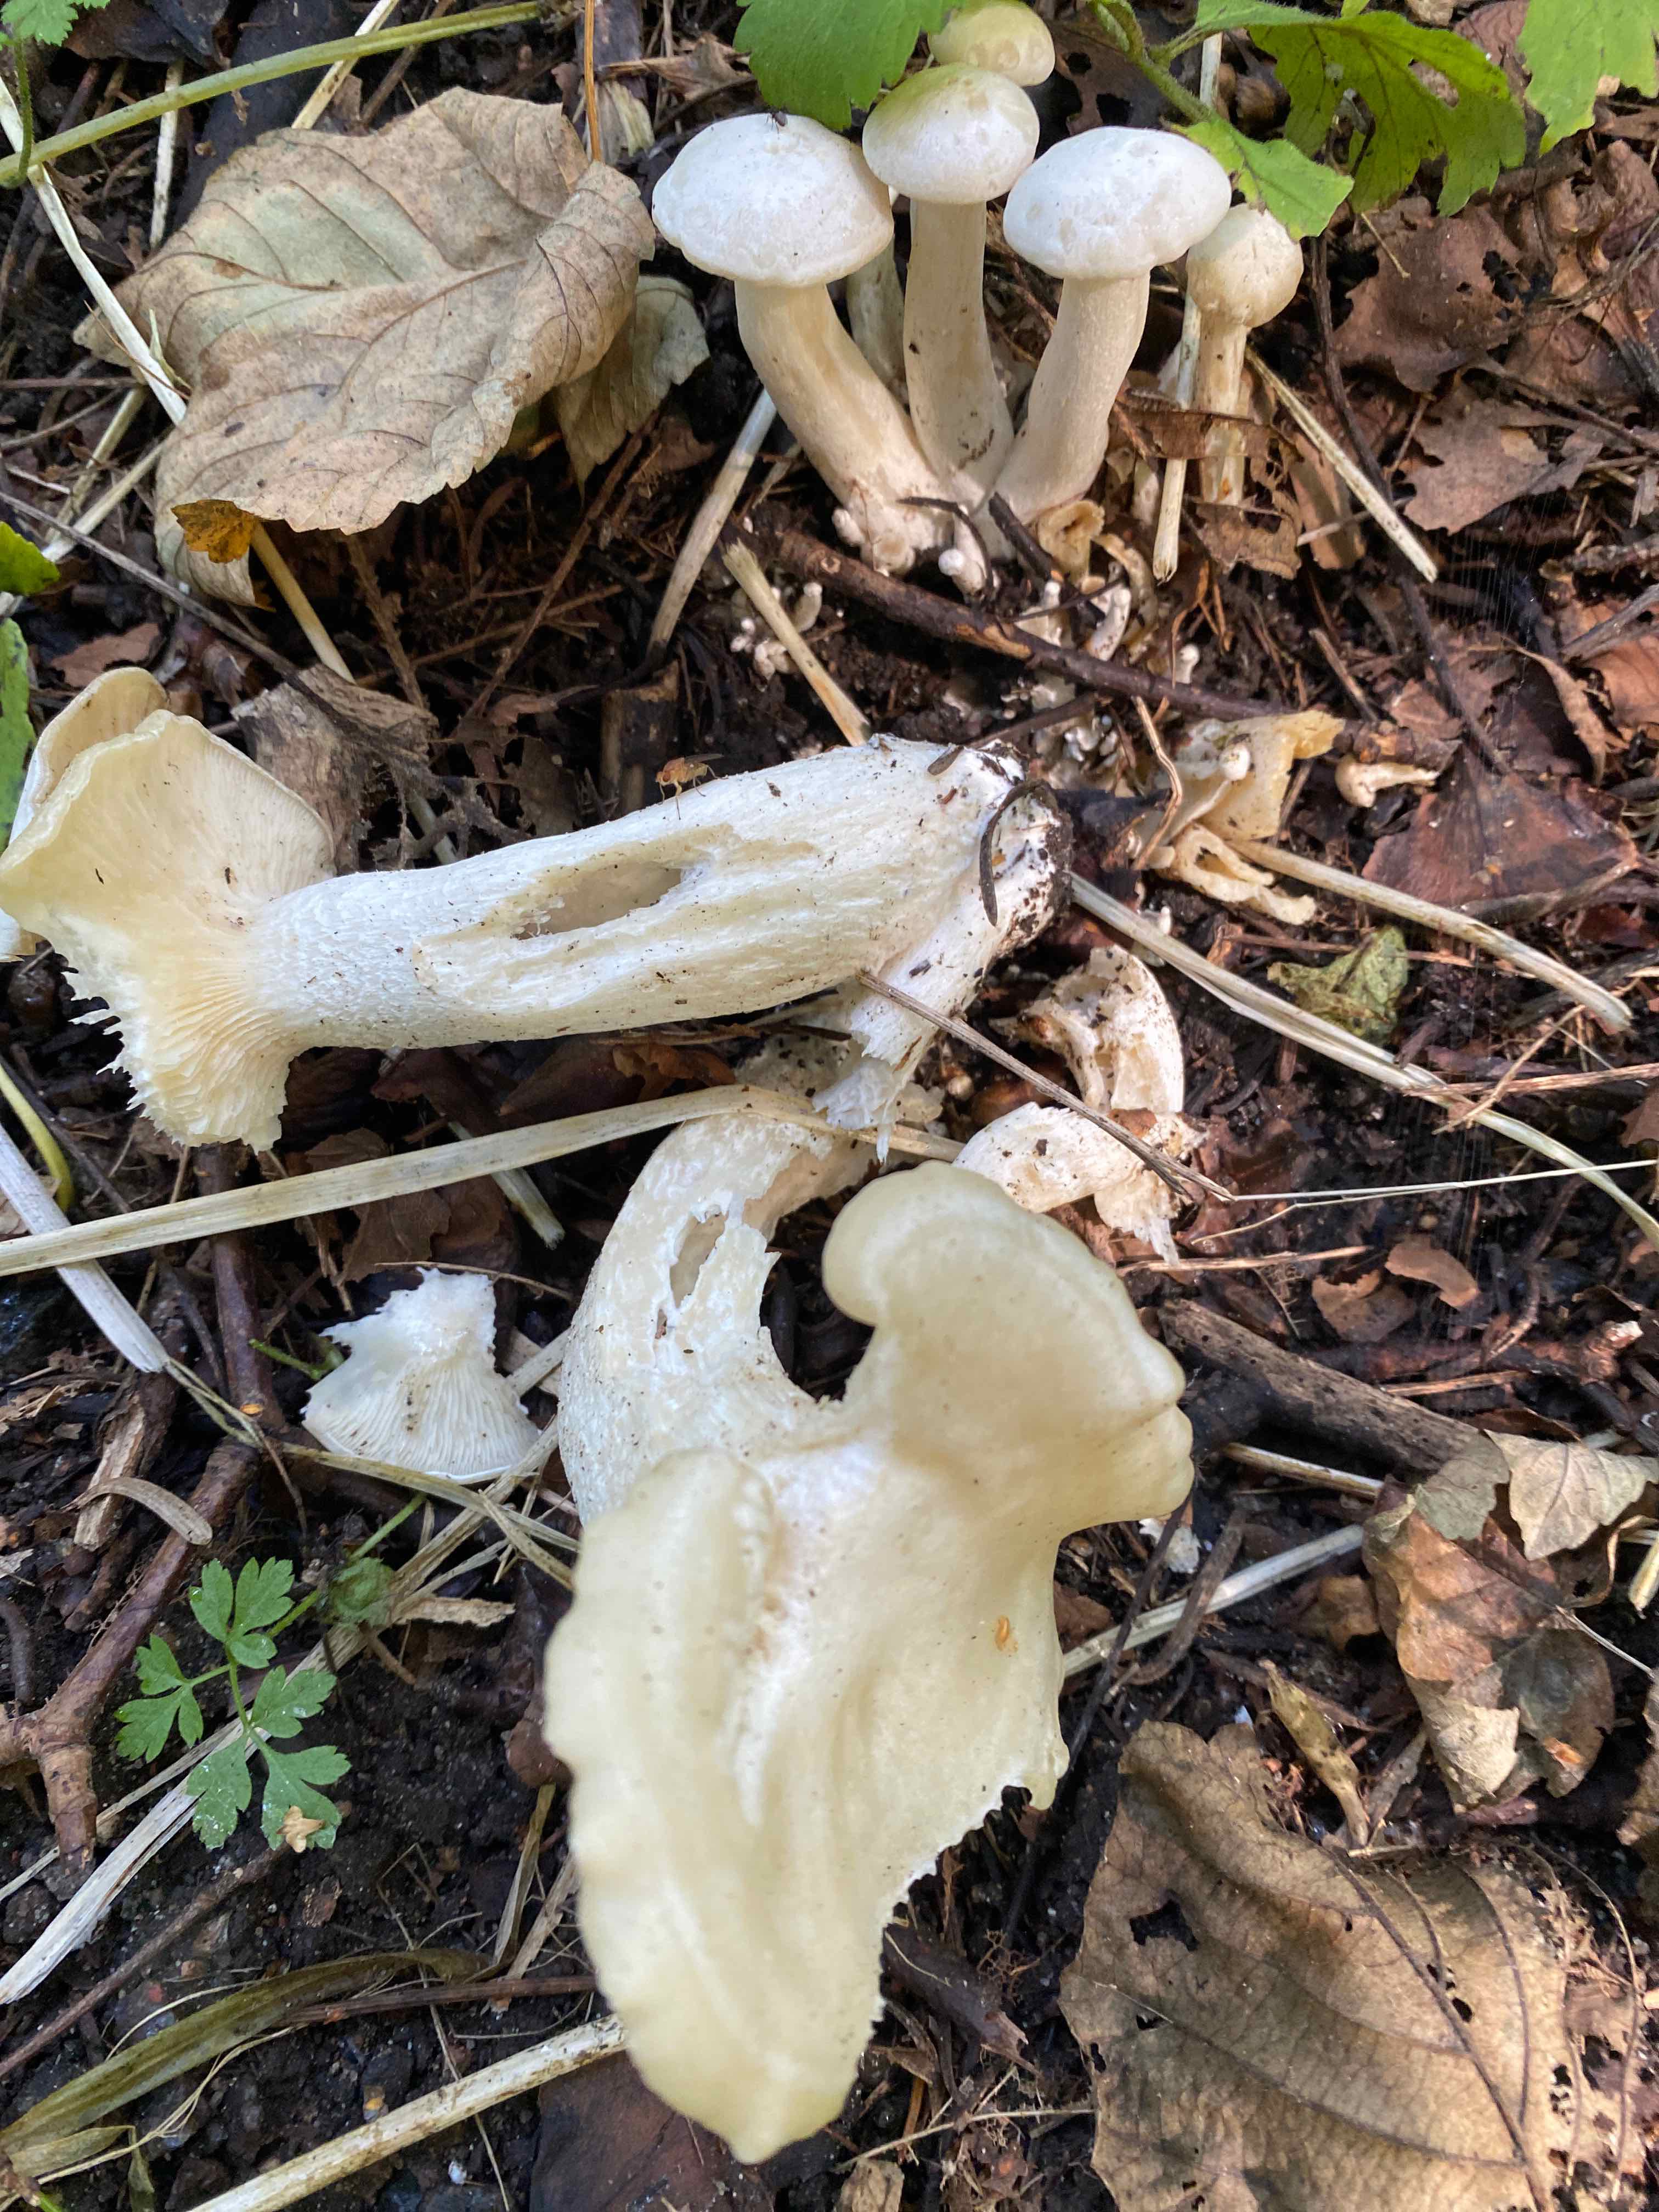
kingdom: Fungi
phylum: Basidiomycota
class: Agaricomycetes
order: Agaricales
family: Tricholomataceae
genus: Leucocybe
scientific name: Leucocybe connata
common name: knippe-tragthat
